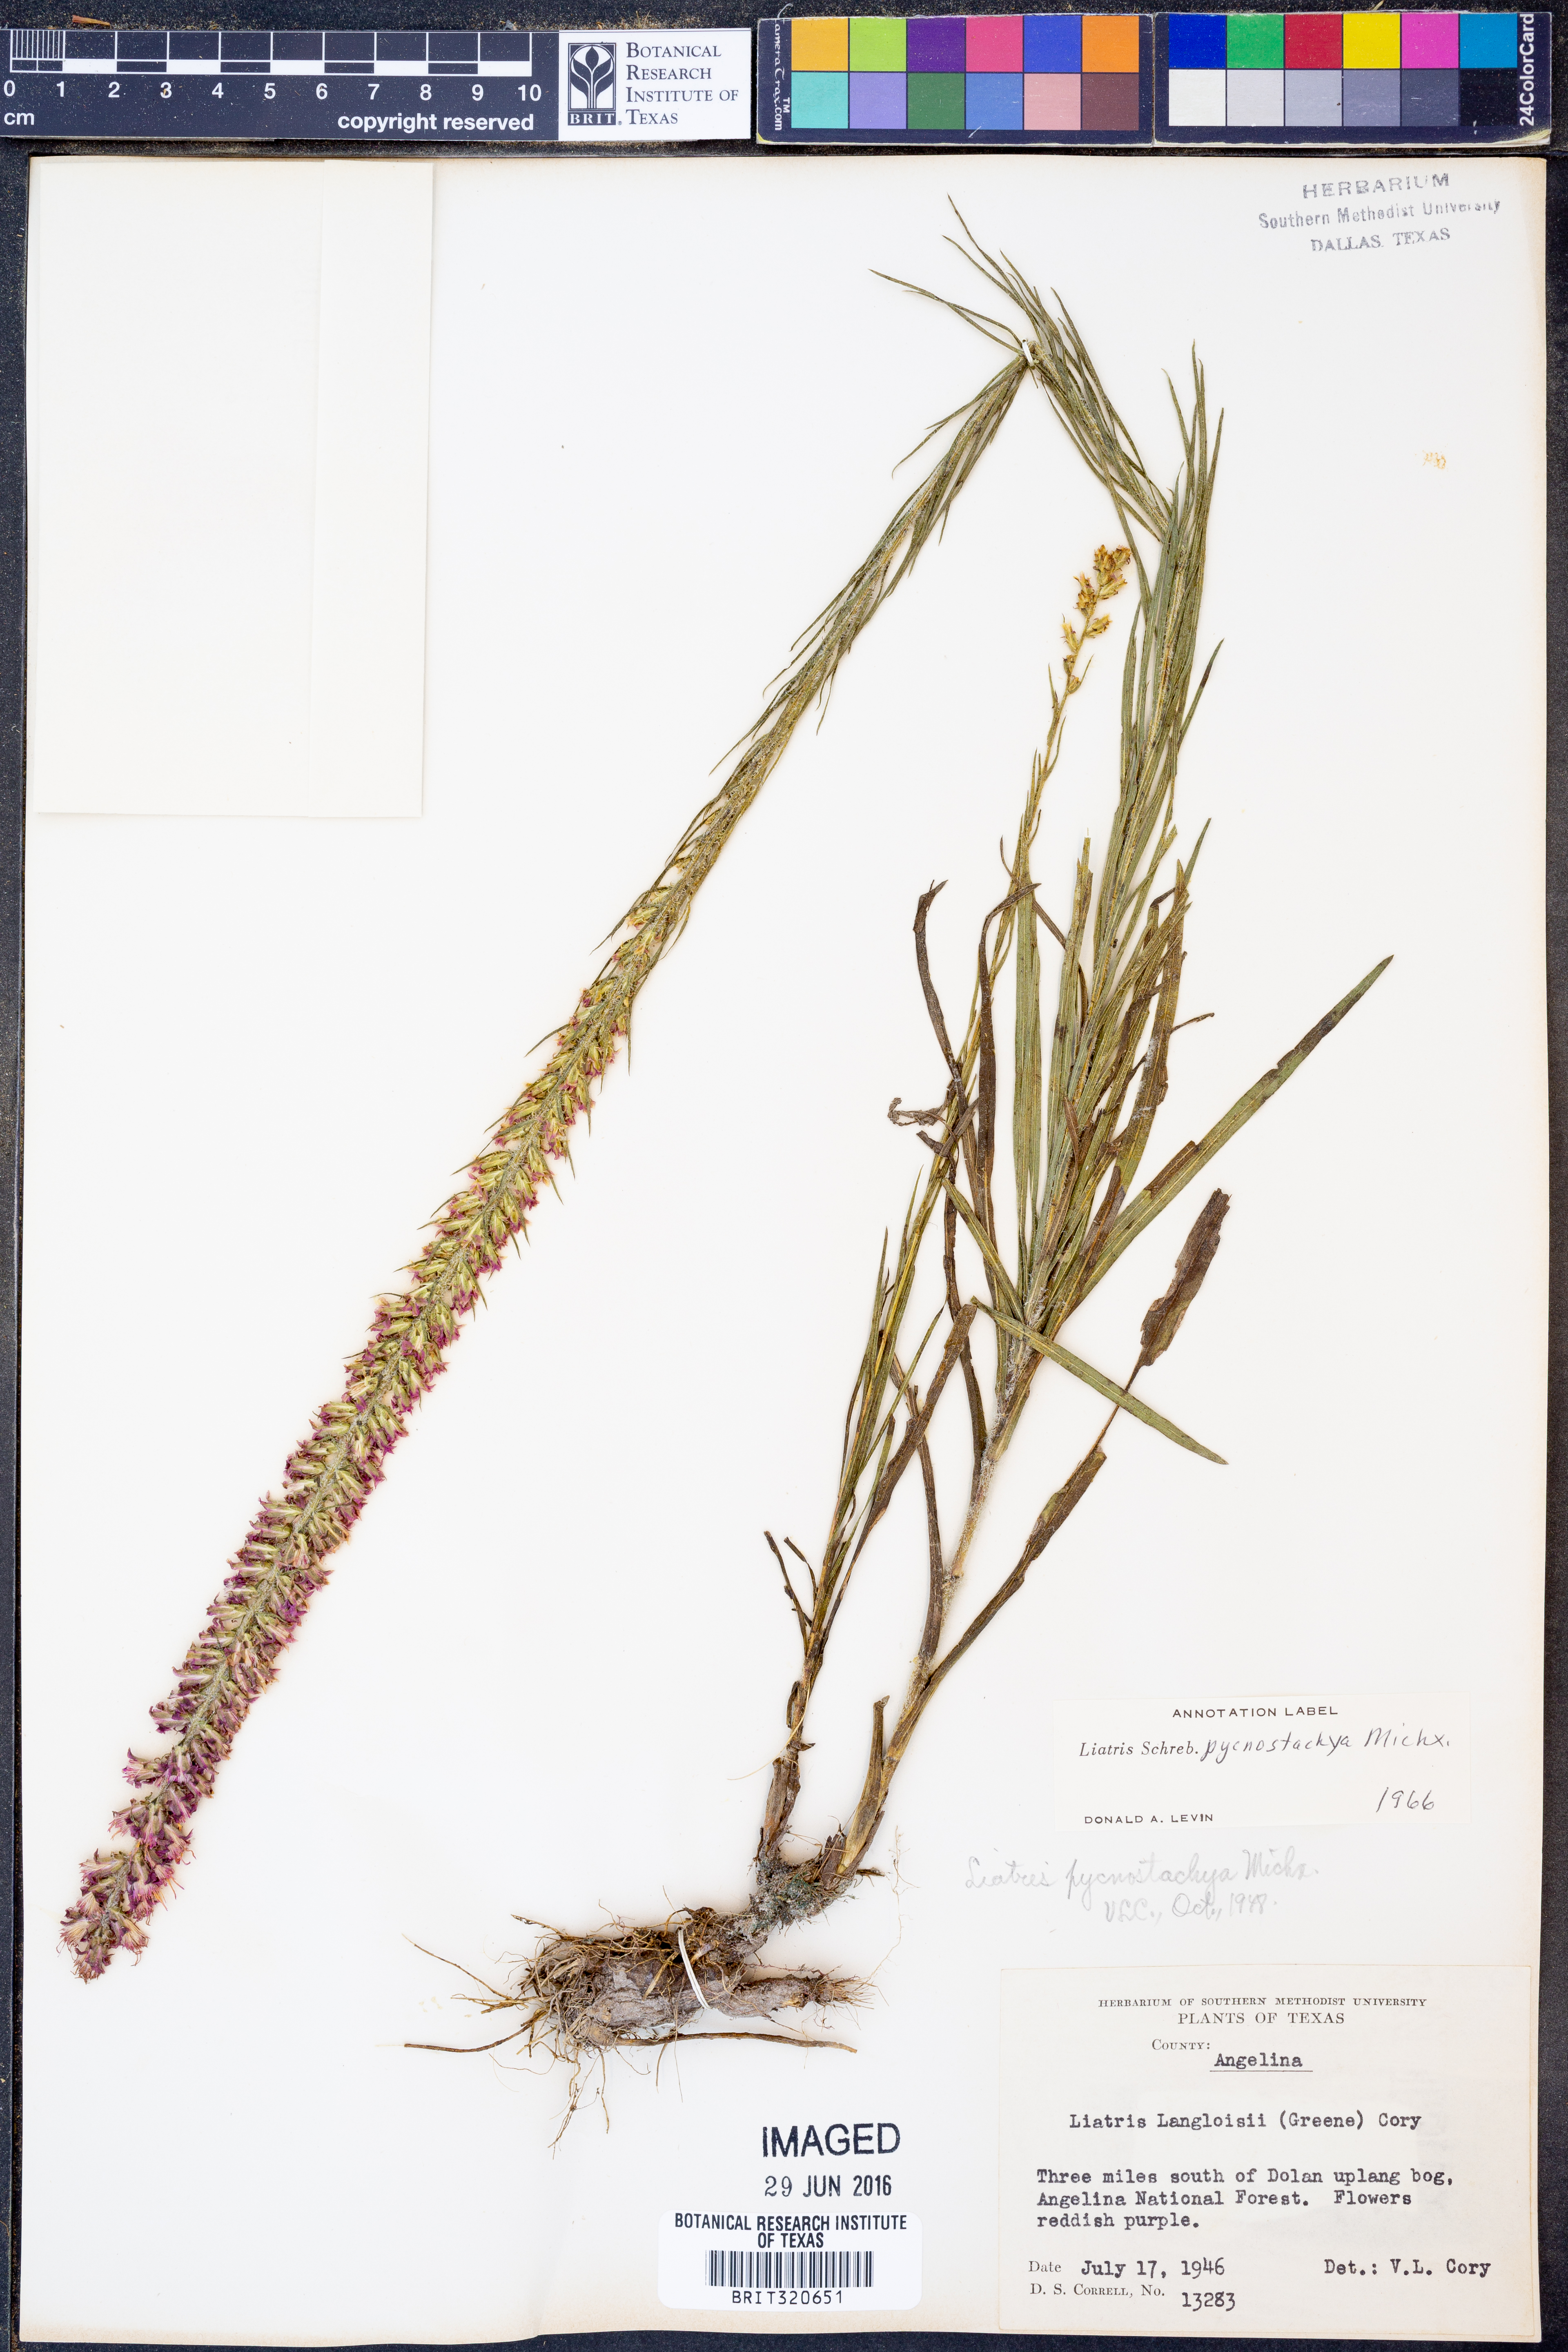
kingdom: Plantae
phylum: Tracheophyta
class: Magnoliopsida
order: Asterales
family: Asteraceae
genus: Liatris
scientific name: Liatris pycnostachya
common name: Cattail gayfeather
